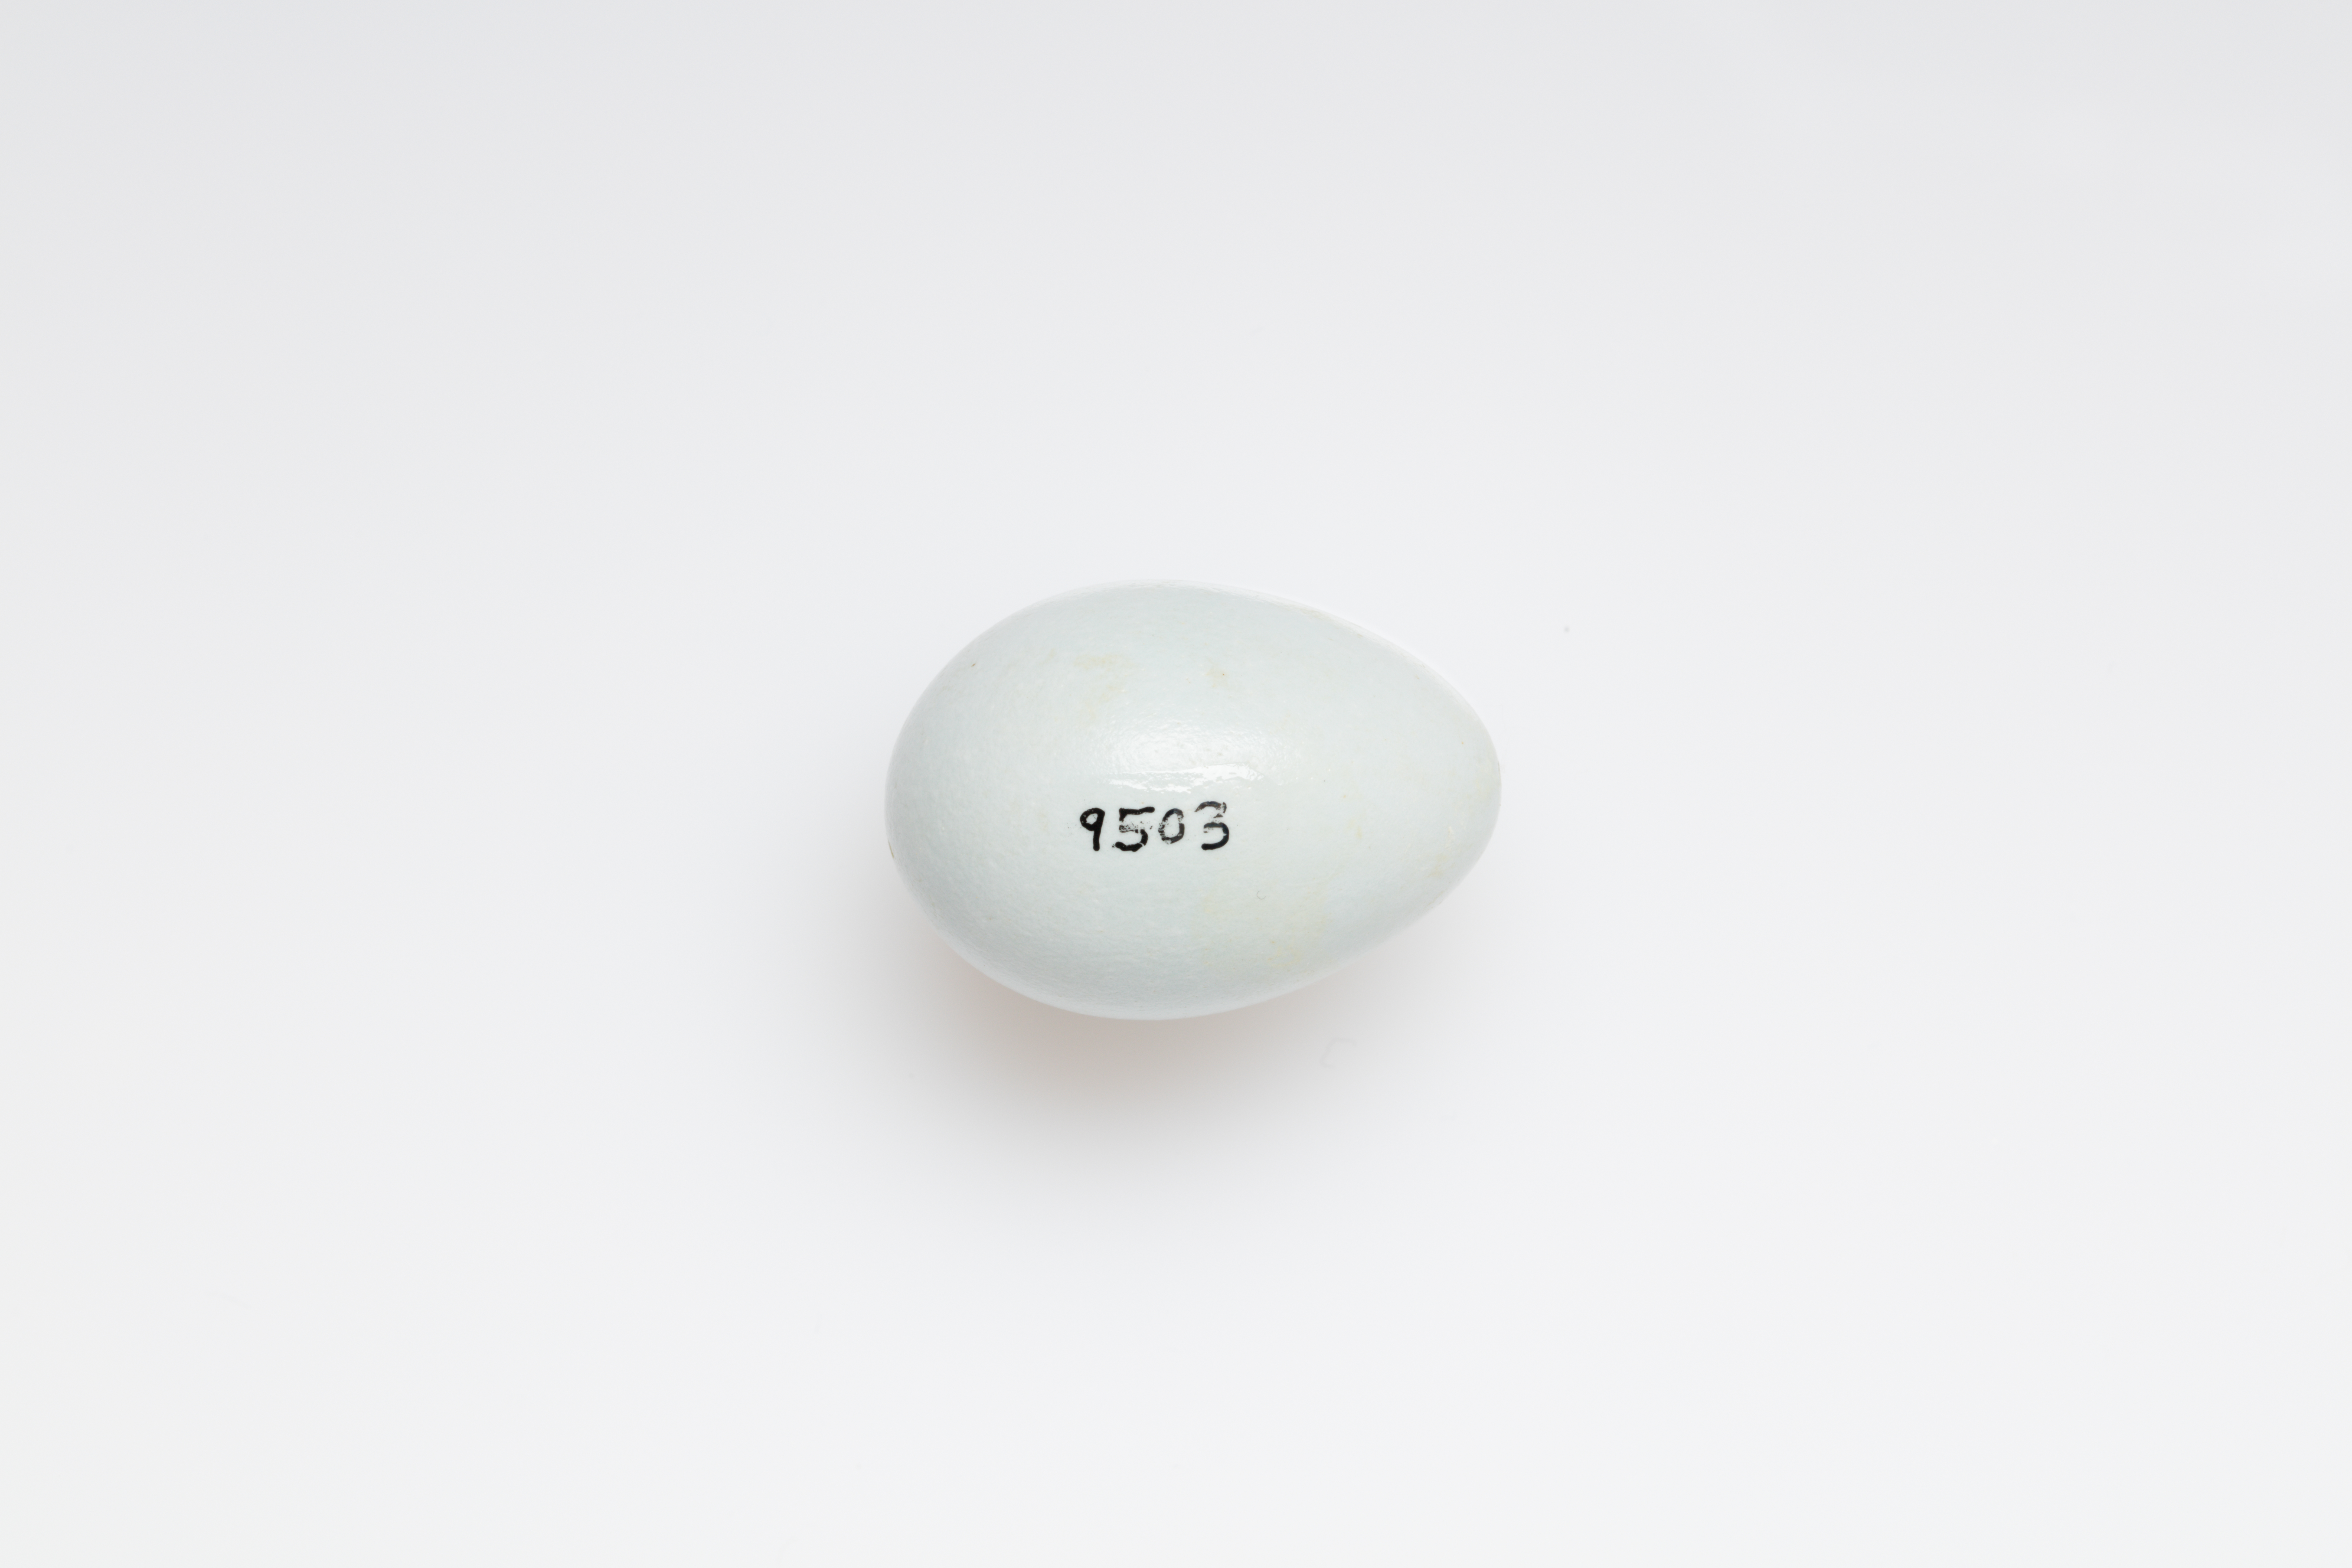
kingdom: Animalia
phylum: Chordata
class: Aves
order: Passeriformes
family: Sturnidae
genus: Sturnus
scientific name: Sturnus vulgaris
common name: Common starling
